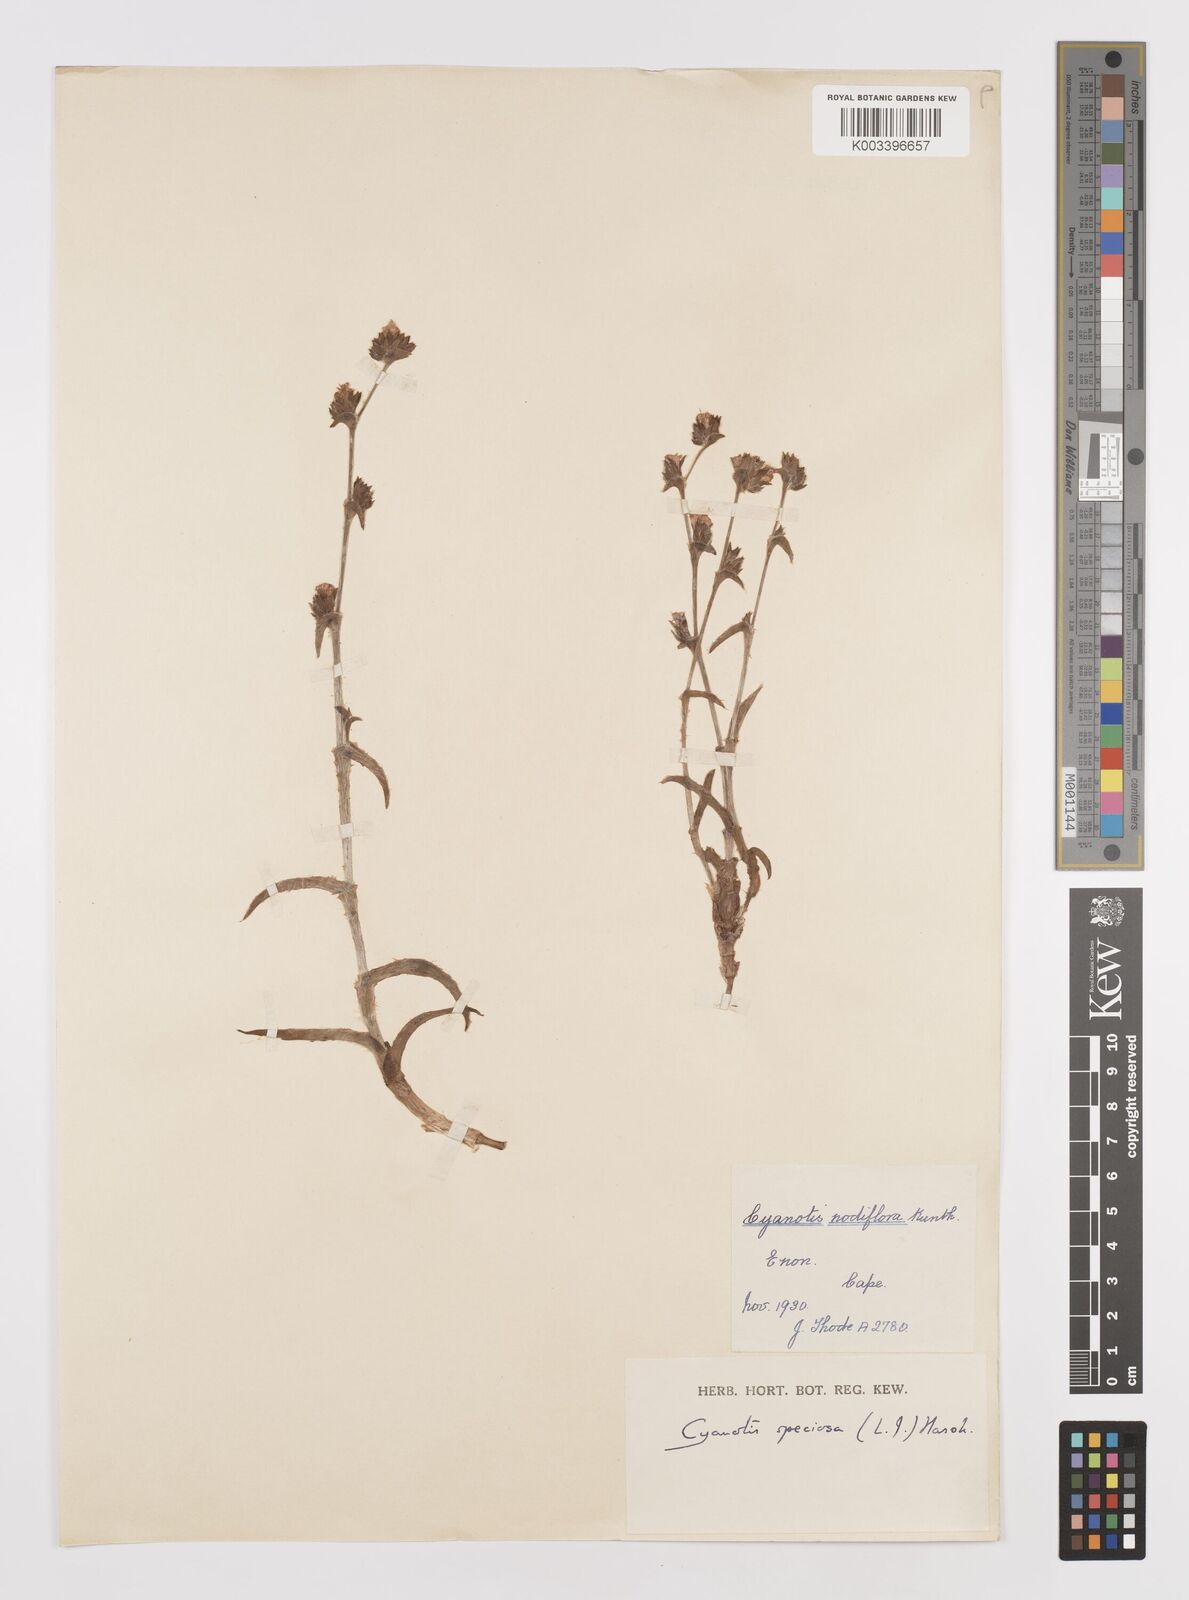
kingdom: Plantae
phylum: Tracheophyta
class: Liliopsida
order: Commelinales
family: Commelinaceae
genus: Cyanotis
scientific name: Cyanotis speciosa
